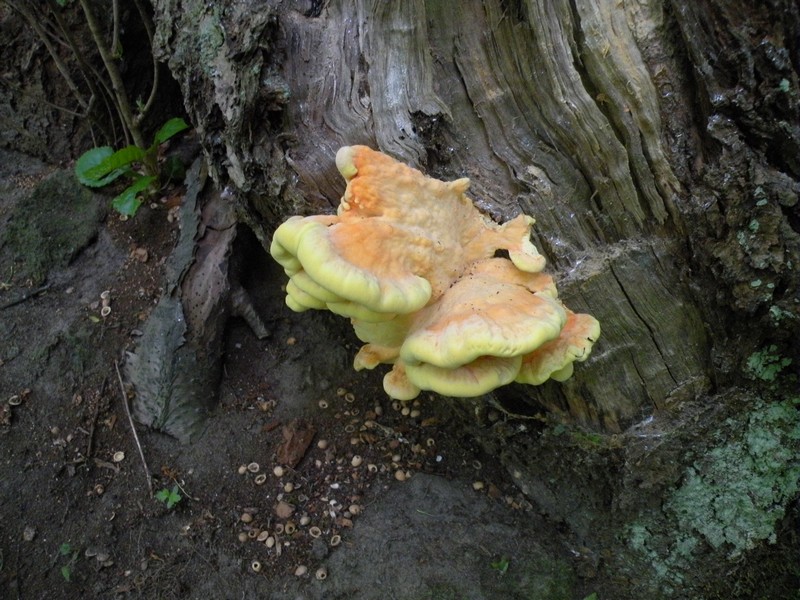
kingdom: Fungi
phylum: Basidiomycota
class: Agaricomycetes
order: Polyporales
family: Laetiporaceae
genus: Laetiporus
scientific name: Laetiporus sulphureus
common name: svovlporesvamp
